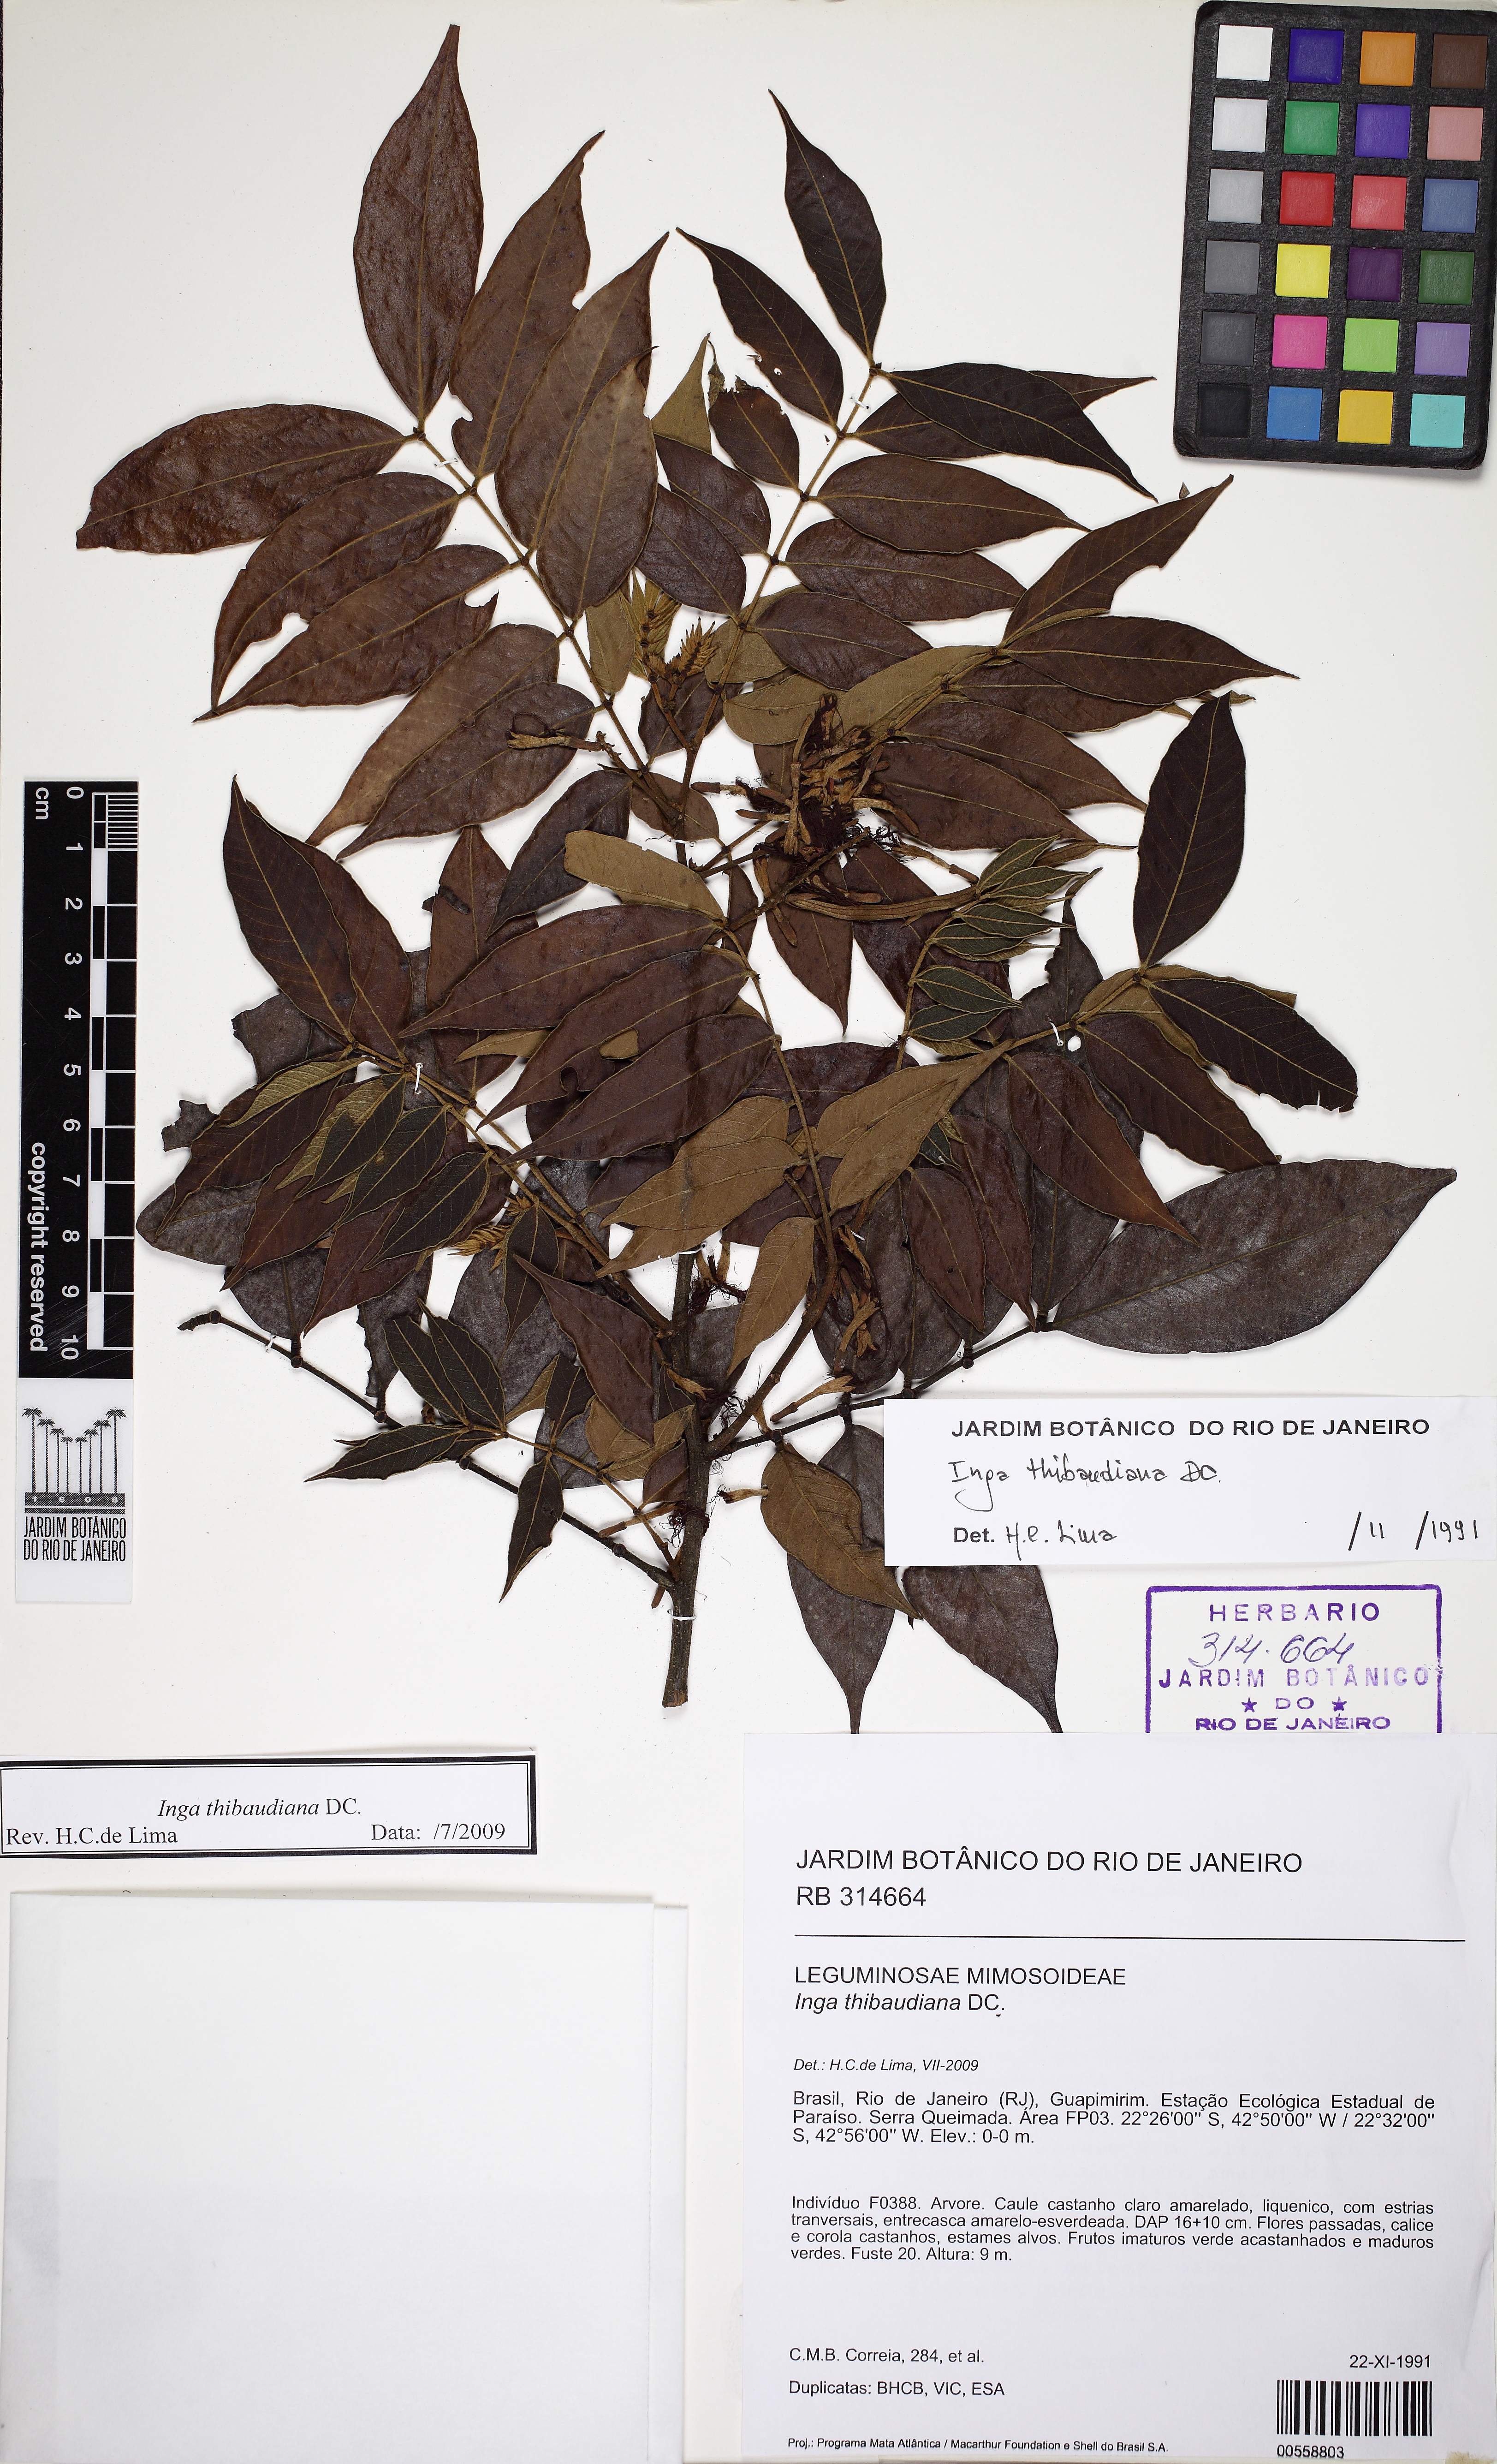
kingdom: Plantae
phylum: Tracheophyta
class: Magnoliopsida
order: Fabales
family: Fabaceae
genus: Inga
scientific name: Inga thibaudiana
